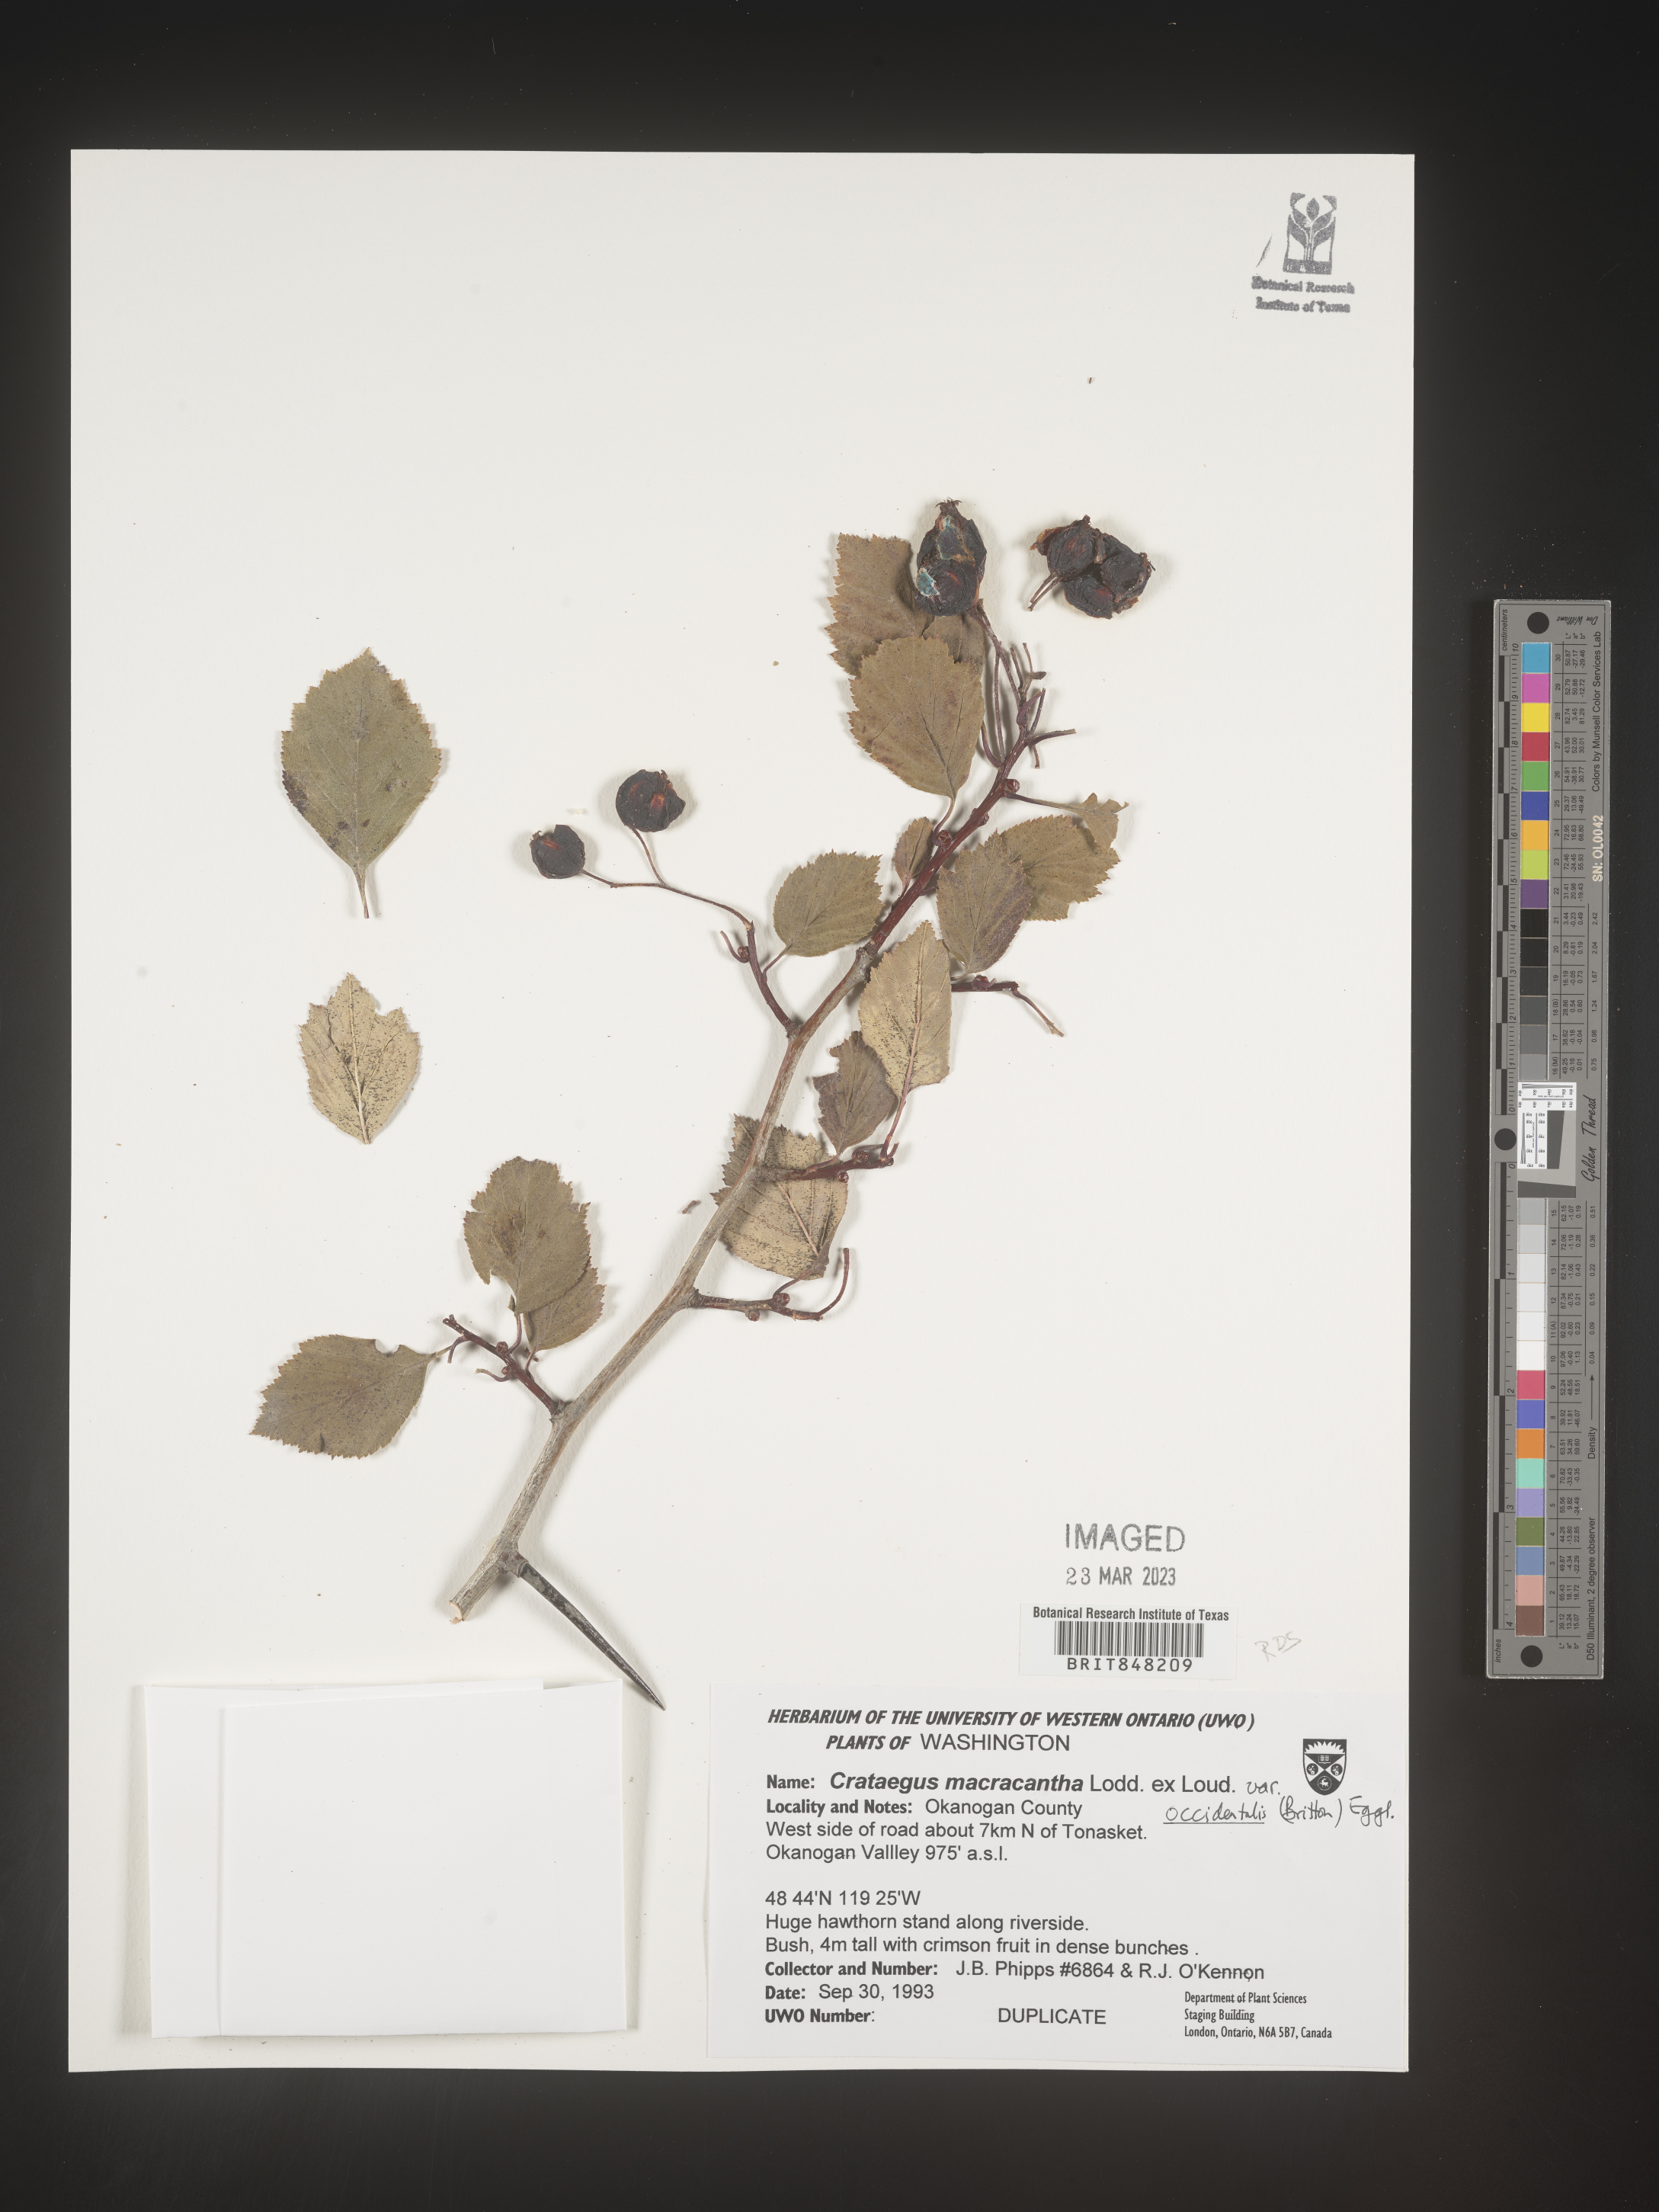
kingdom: Plantae
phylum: Tracheophyta
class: Magnoliopsida
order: Rosales
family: Rosaceae
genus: Crataegus
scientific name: Crataegus macracantha
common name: Large-thorn hawthorn
